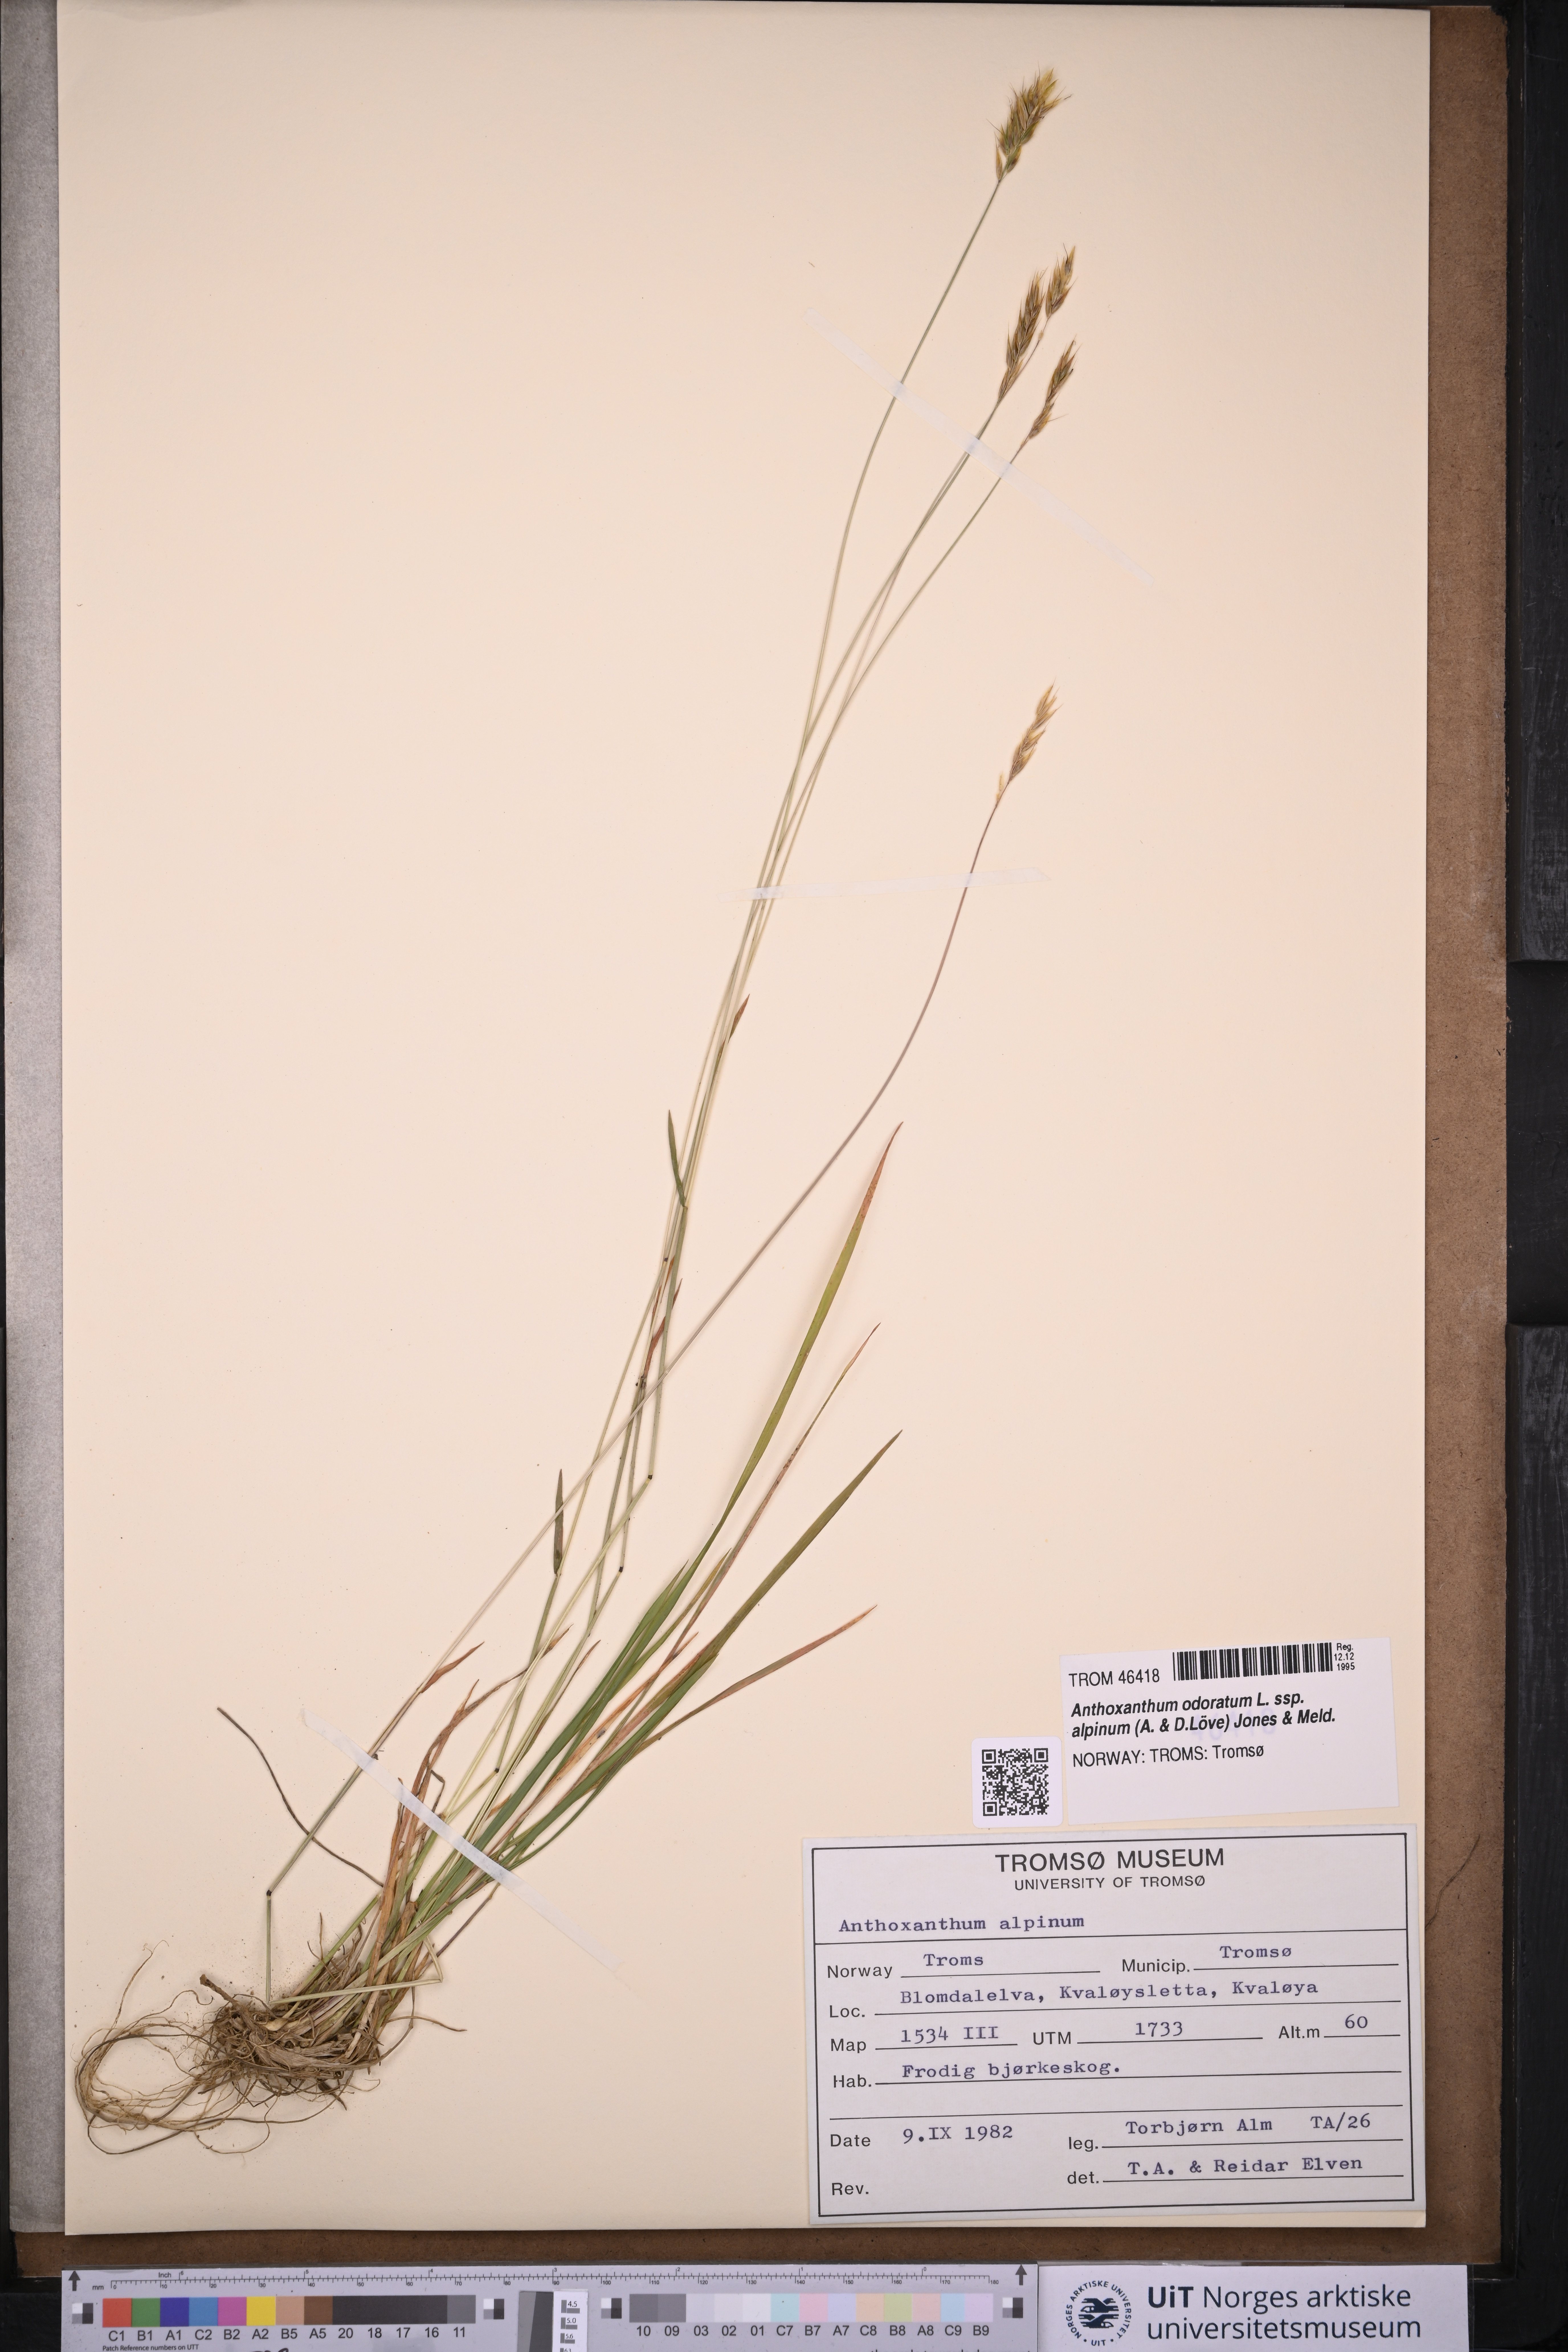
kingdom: Plantae
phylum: Tracheophyta
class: Liliopsida
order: Poales
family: Poaceae
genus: Anthoxanthum
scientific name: Anthoxanthum nipponicum
